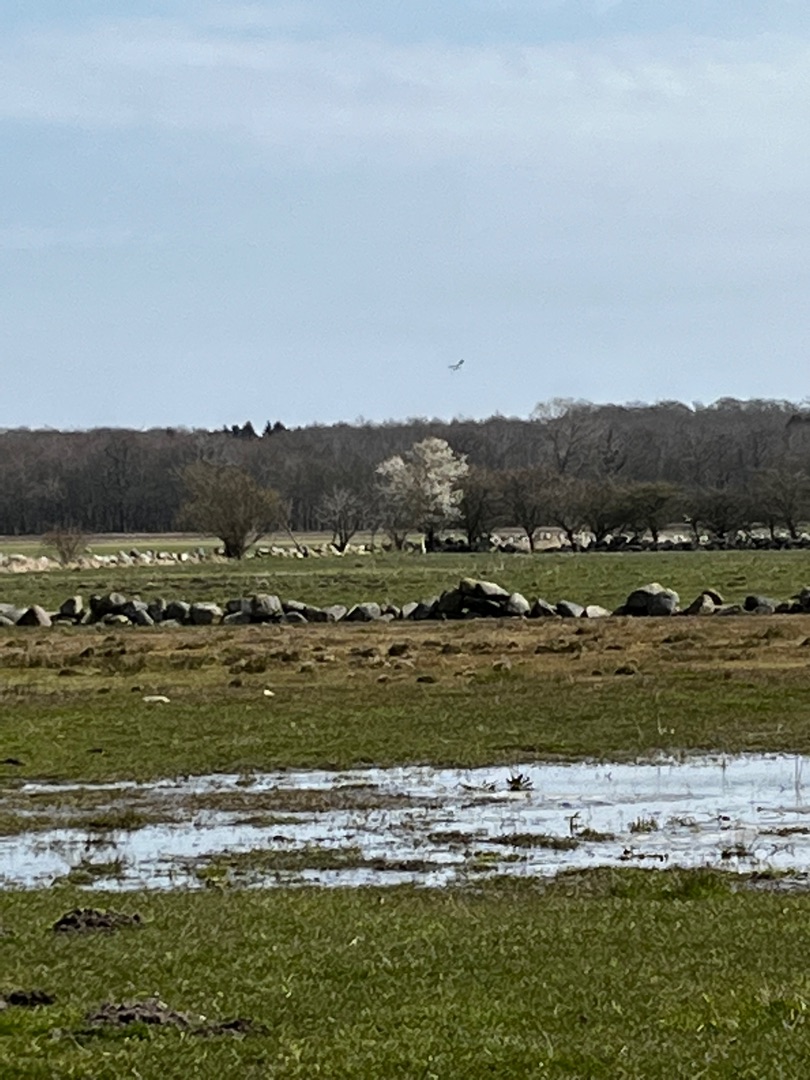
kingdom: Animalia
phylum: Chordata
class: Aves
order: Charadriiformes
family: Charadriidae
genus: Vanellus
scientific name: Vanellus vanellus
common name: Vibe
